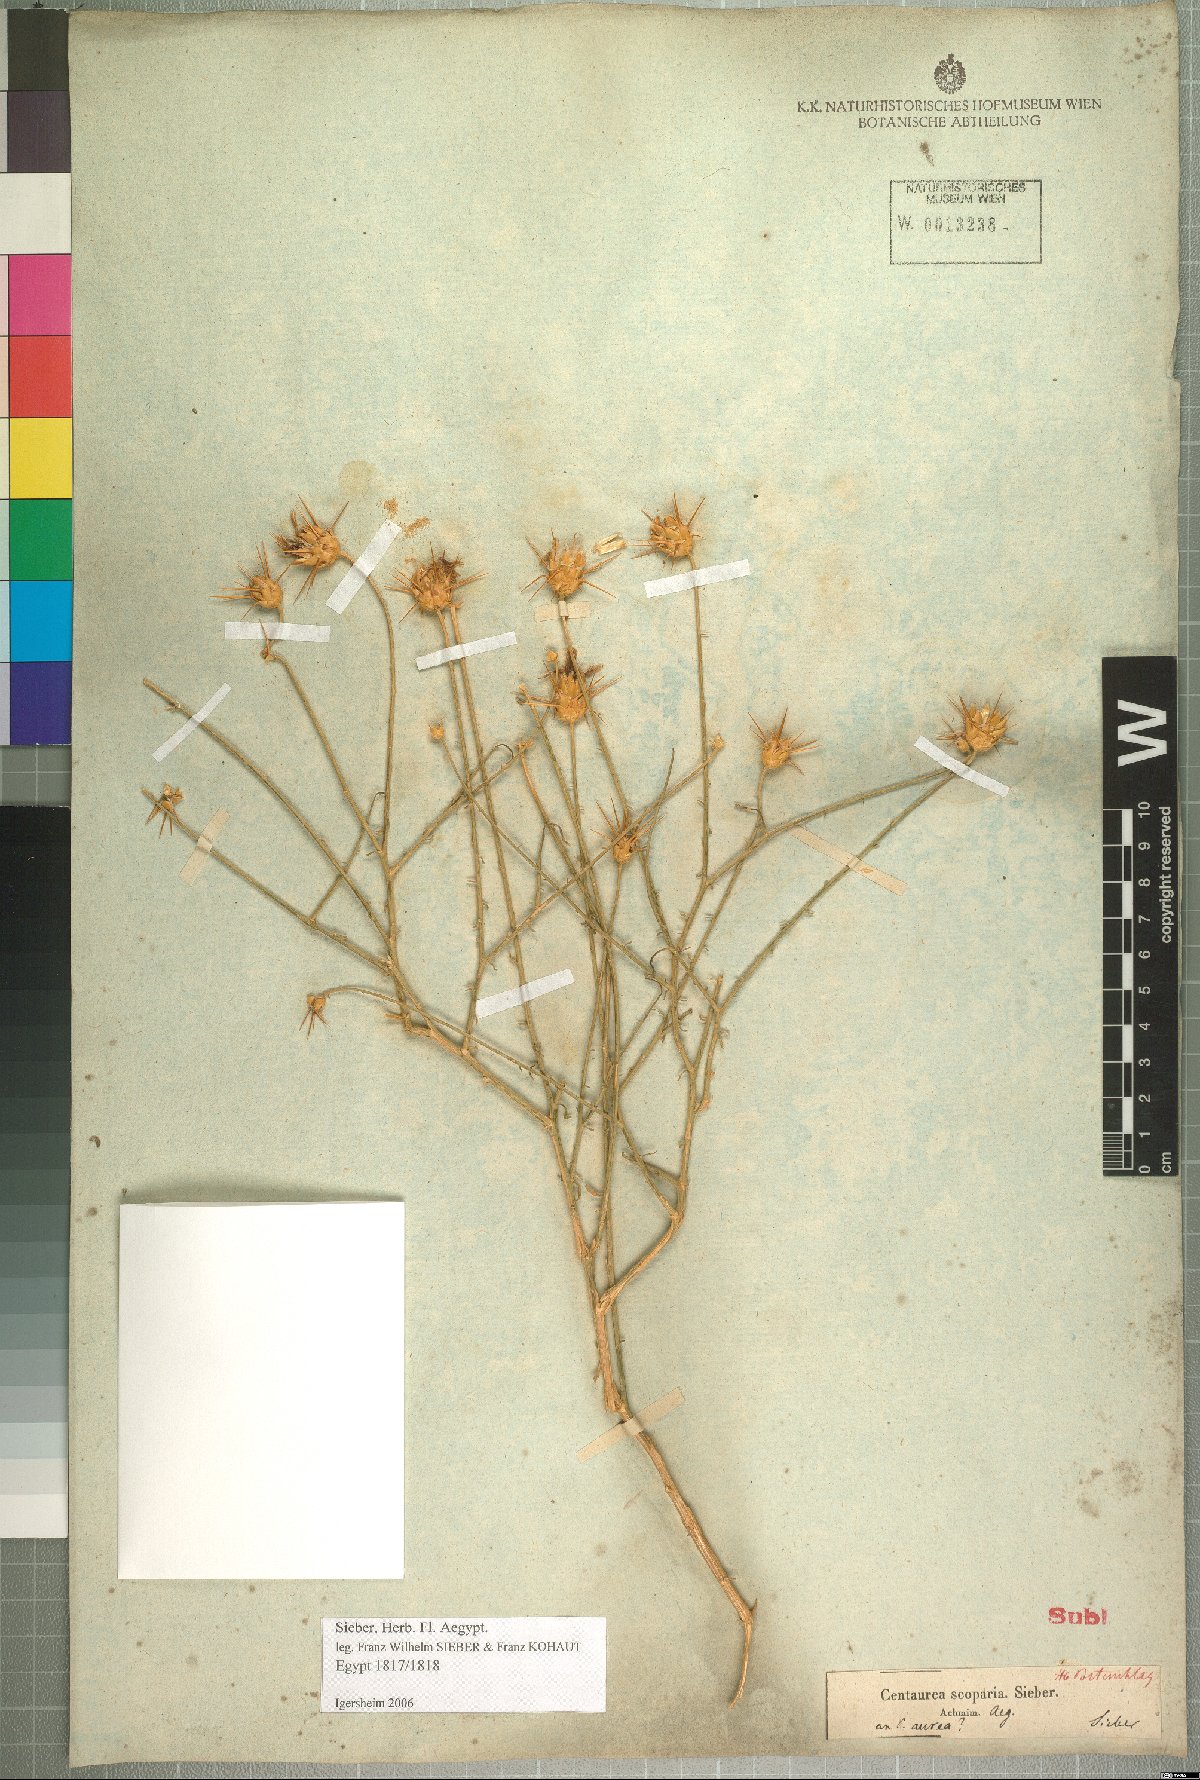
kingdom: Plantae
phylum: Tracheophyta
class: Magnoliopsida
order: Asterales
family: Asteraceae
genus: Centaurea
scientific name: Centaurea scoparia
